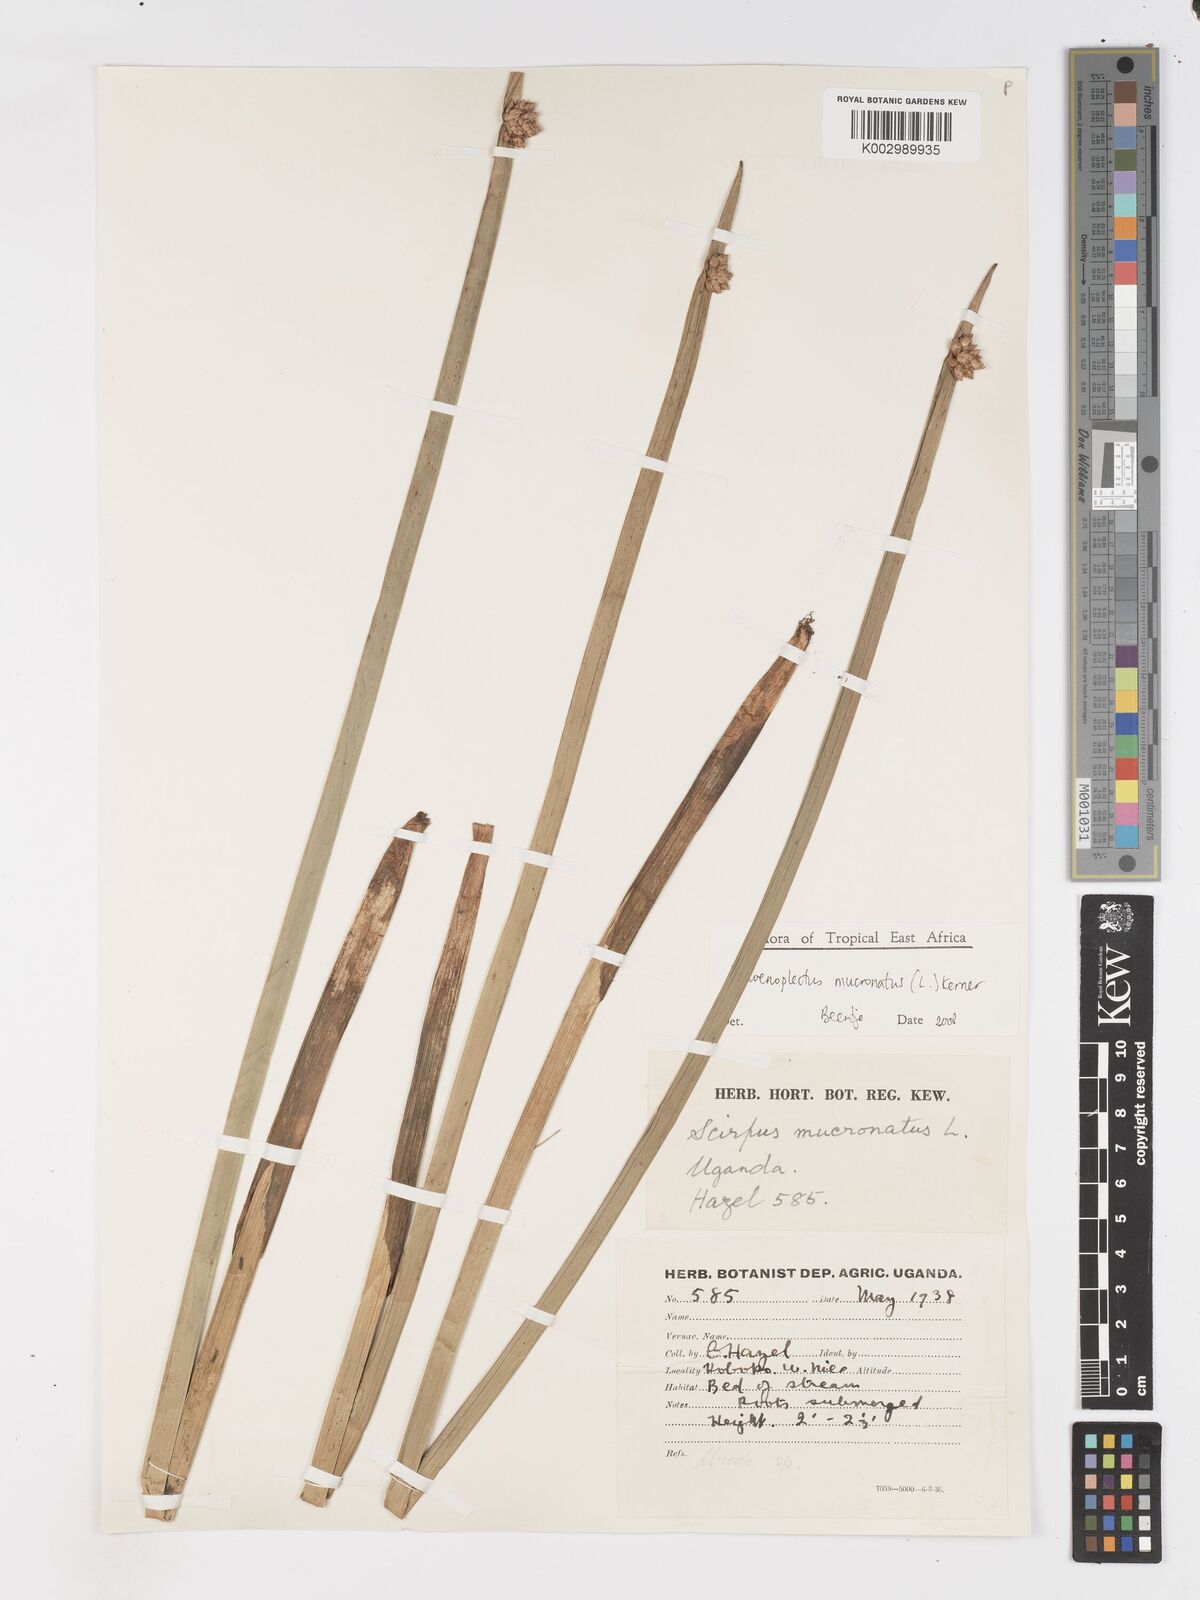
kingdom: Plantae
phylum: Tracheophyta
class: Liliopsida
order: Poales
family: Cyperaceae
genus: Schoenoplectiella
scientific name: Schoenoplectiella mucronata
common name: Bog bulrush
